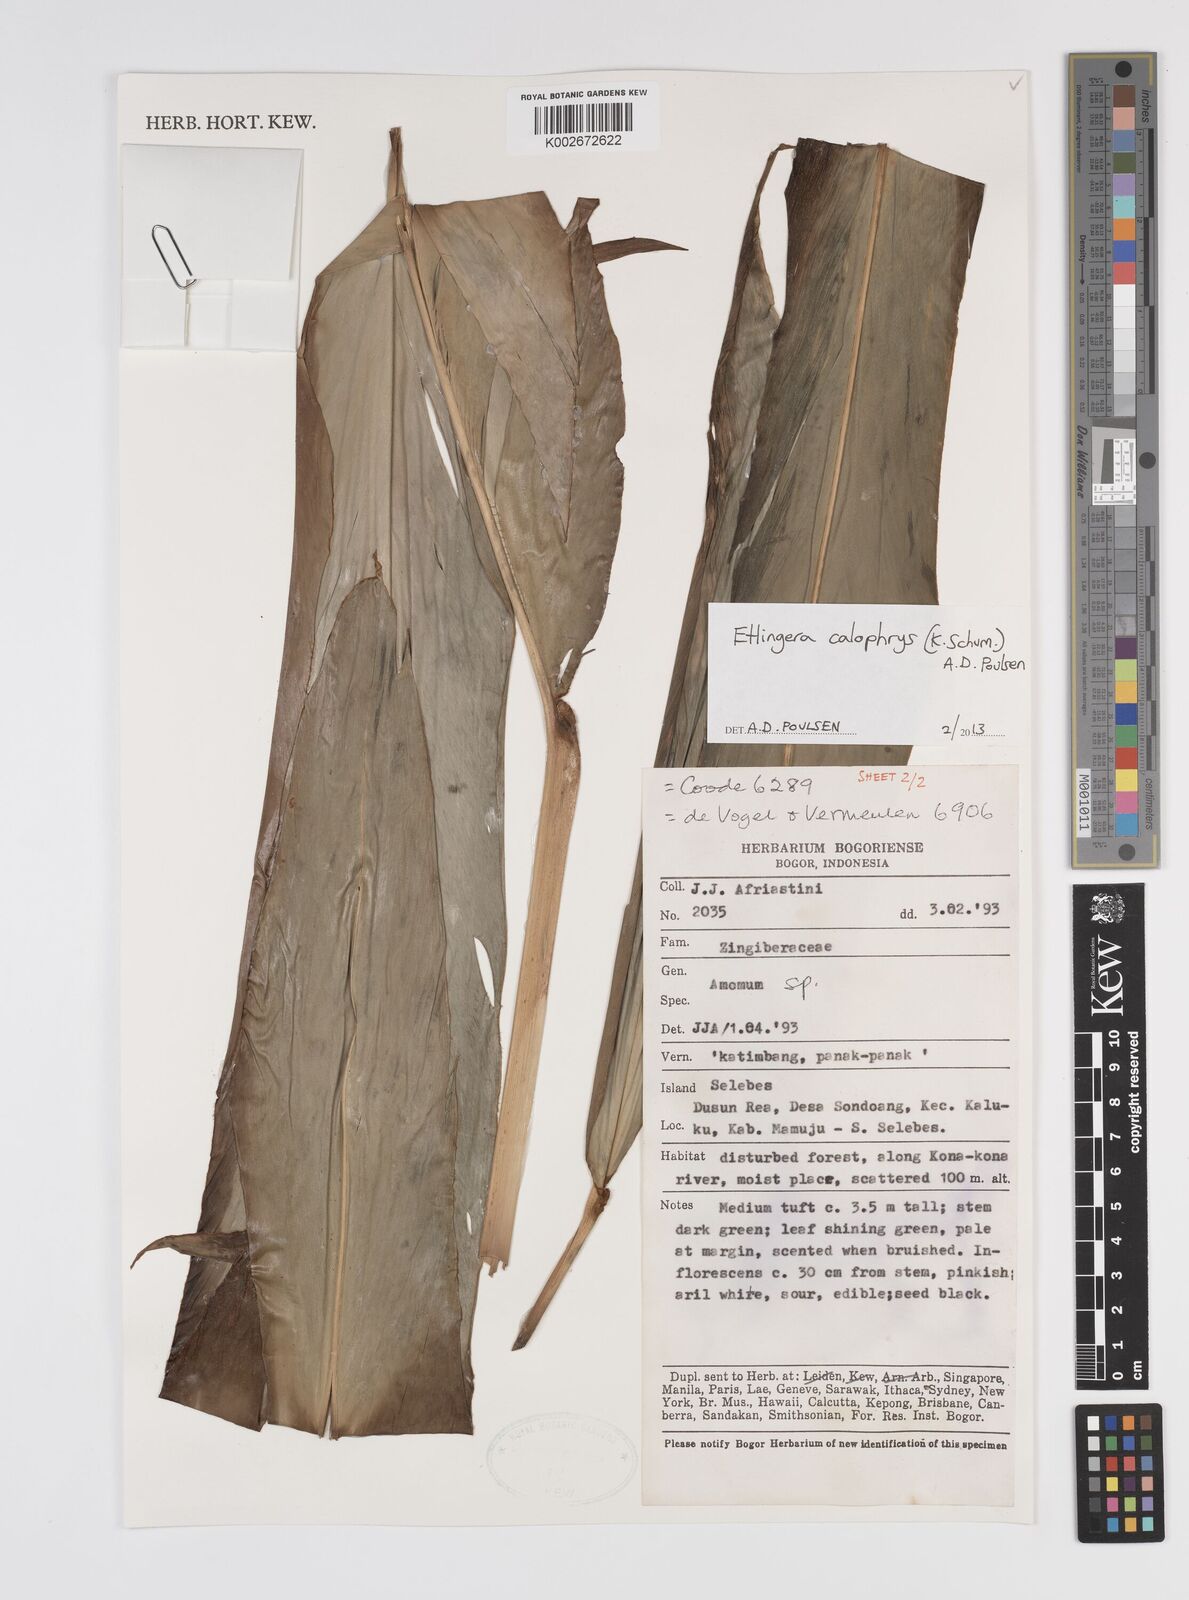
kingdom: Plantae
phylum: Tracheophyta
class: Liliopsida
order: Zingiberales
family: Zingiberaceae
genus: Etlingera
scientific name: Etlingera calophrys
